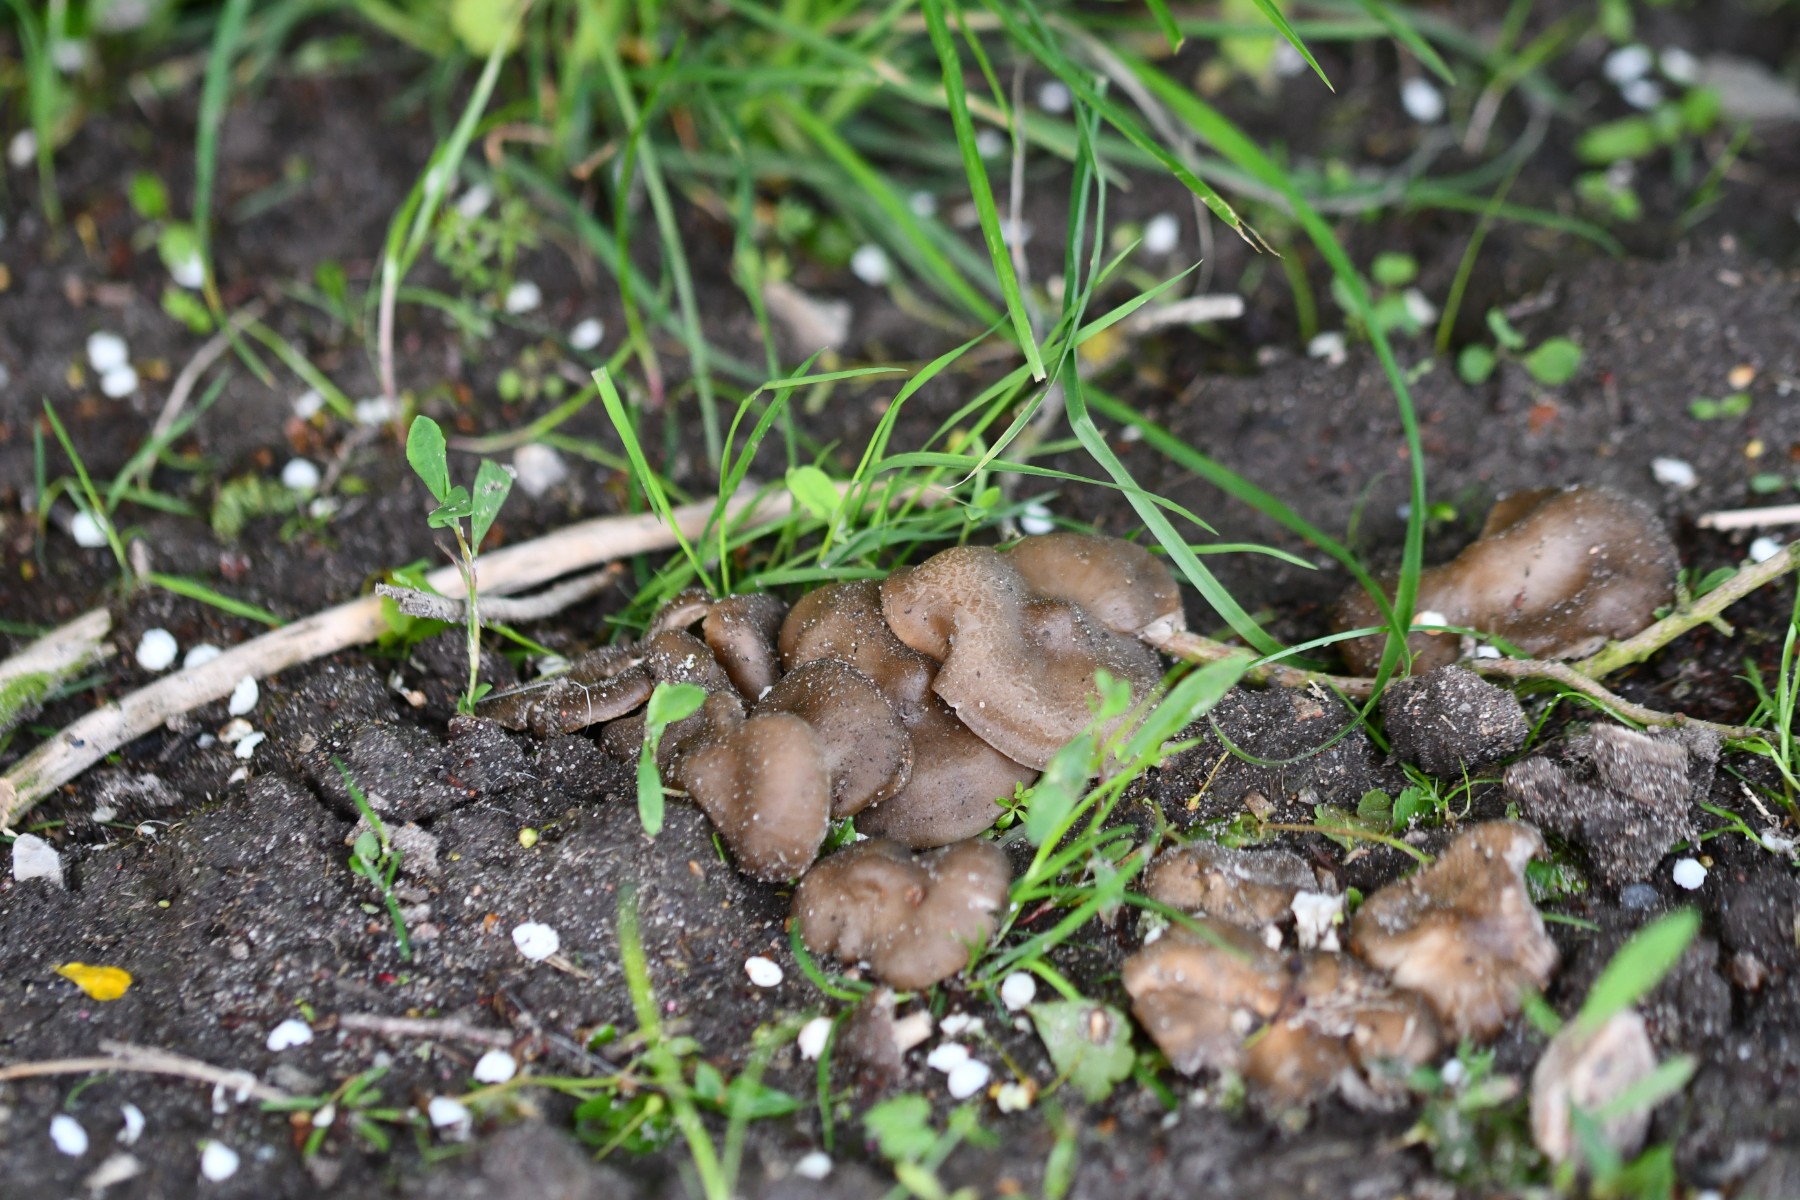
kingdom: Fungi
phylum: Basidiomycota
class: Agaricomycetes
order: Agaricales
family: Entolomataceae
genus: Entoloma
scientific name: Entoloma clypeatum
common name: flammet rødblad
